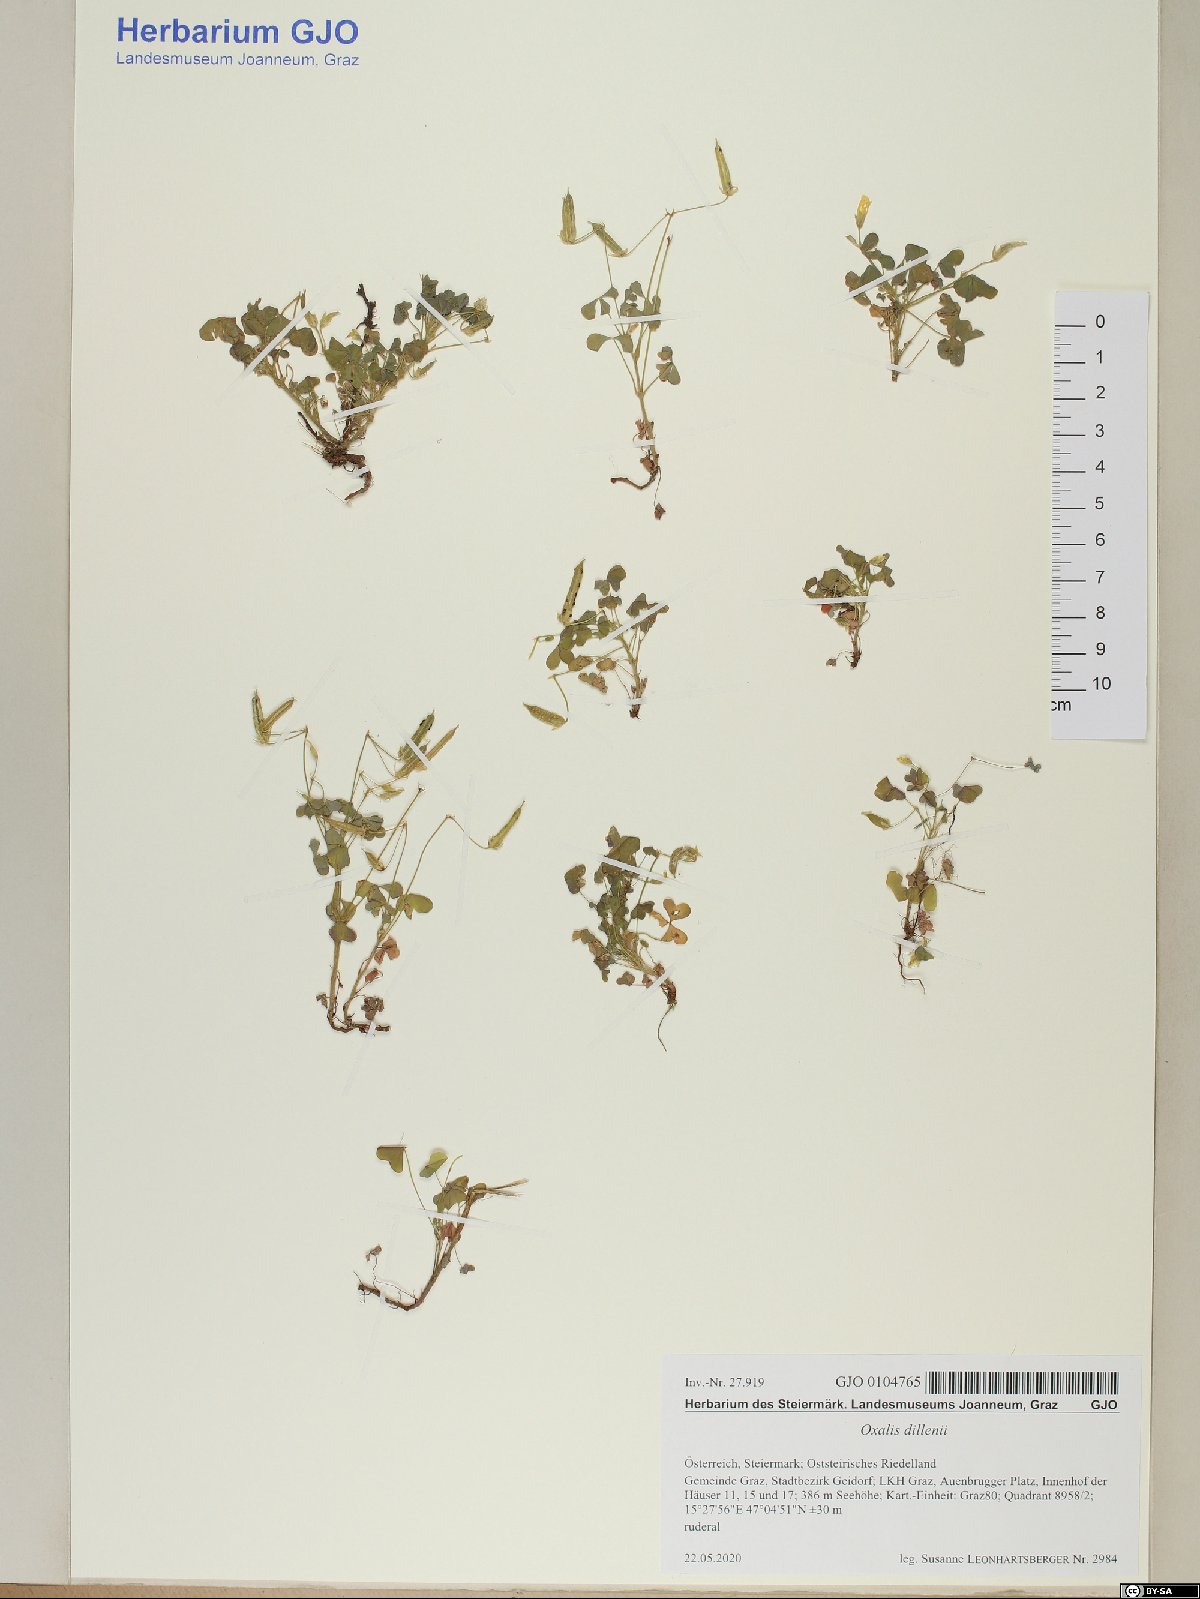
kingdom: Plantae
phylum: Tracheophyta
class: Magnoliopsida
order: Oxalidales
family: Oxalidaceae
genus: Oxalis
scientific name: Oxalis dillenii
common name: Sussex yellow-sorrel
